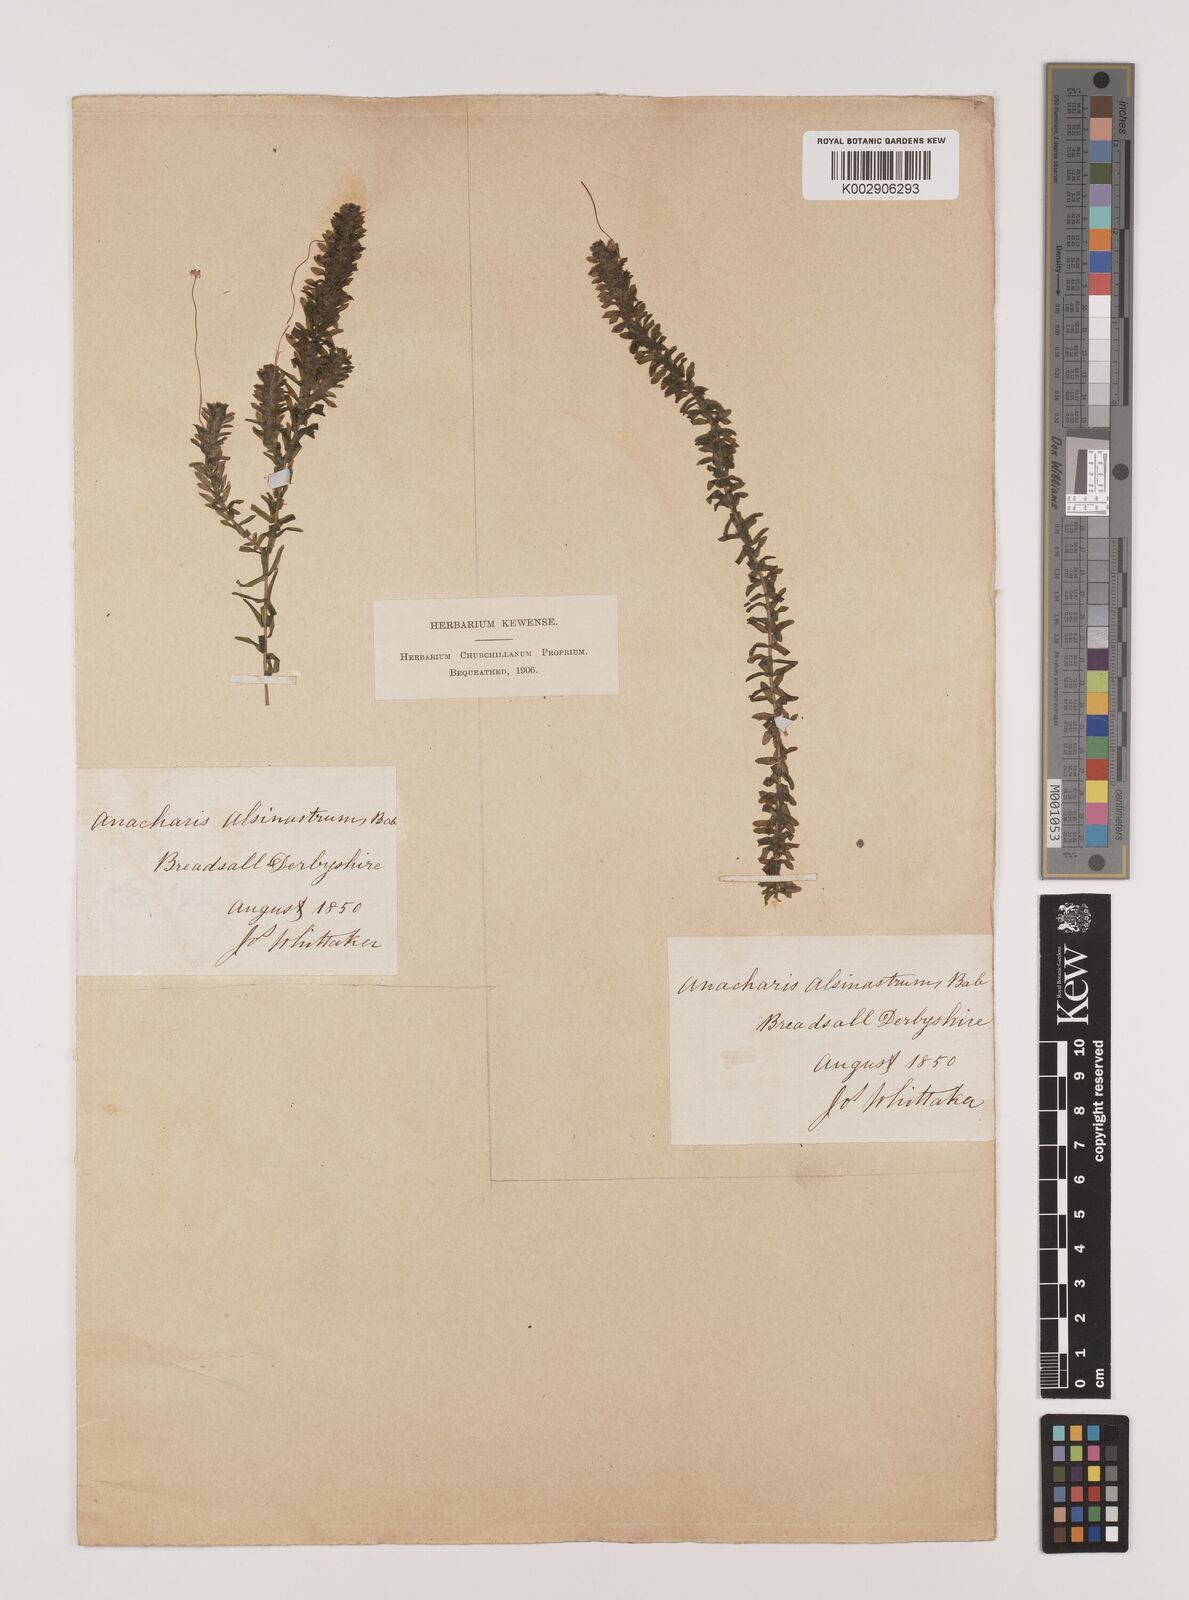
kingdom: Plantae
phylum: Tracheophyta
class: Liliopsida
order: Alismatales
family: Hydrocharitaceae
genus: Elodea
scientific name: Elodea canadensis
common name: Canadian waterweed
